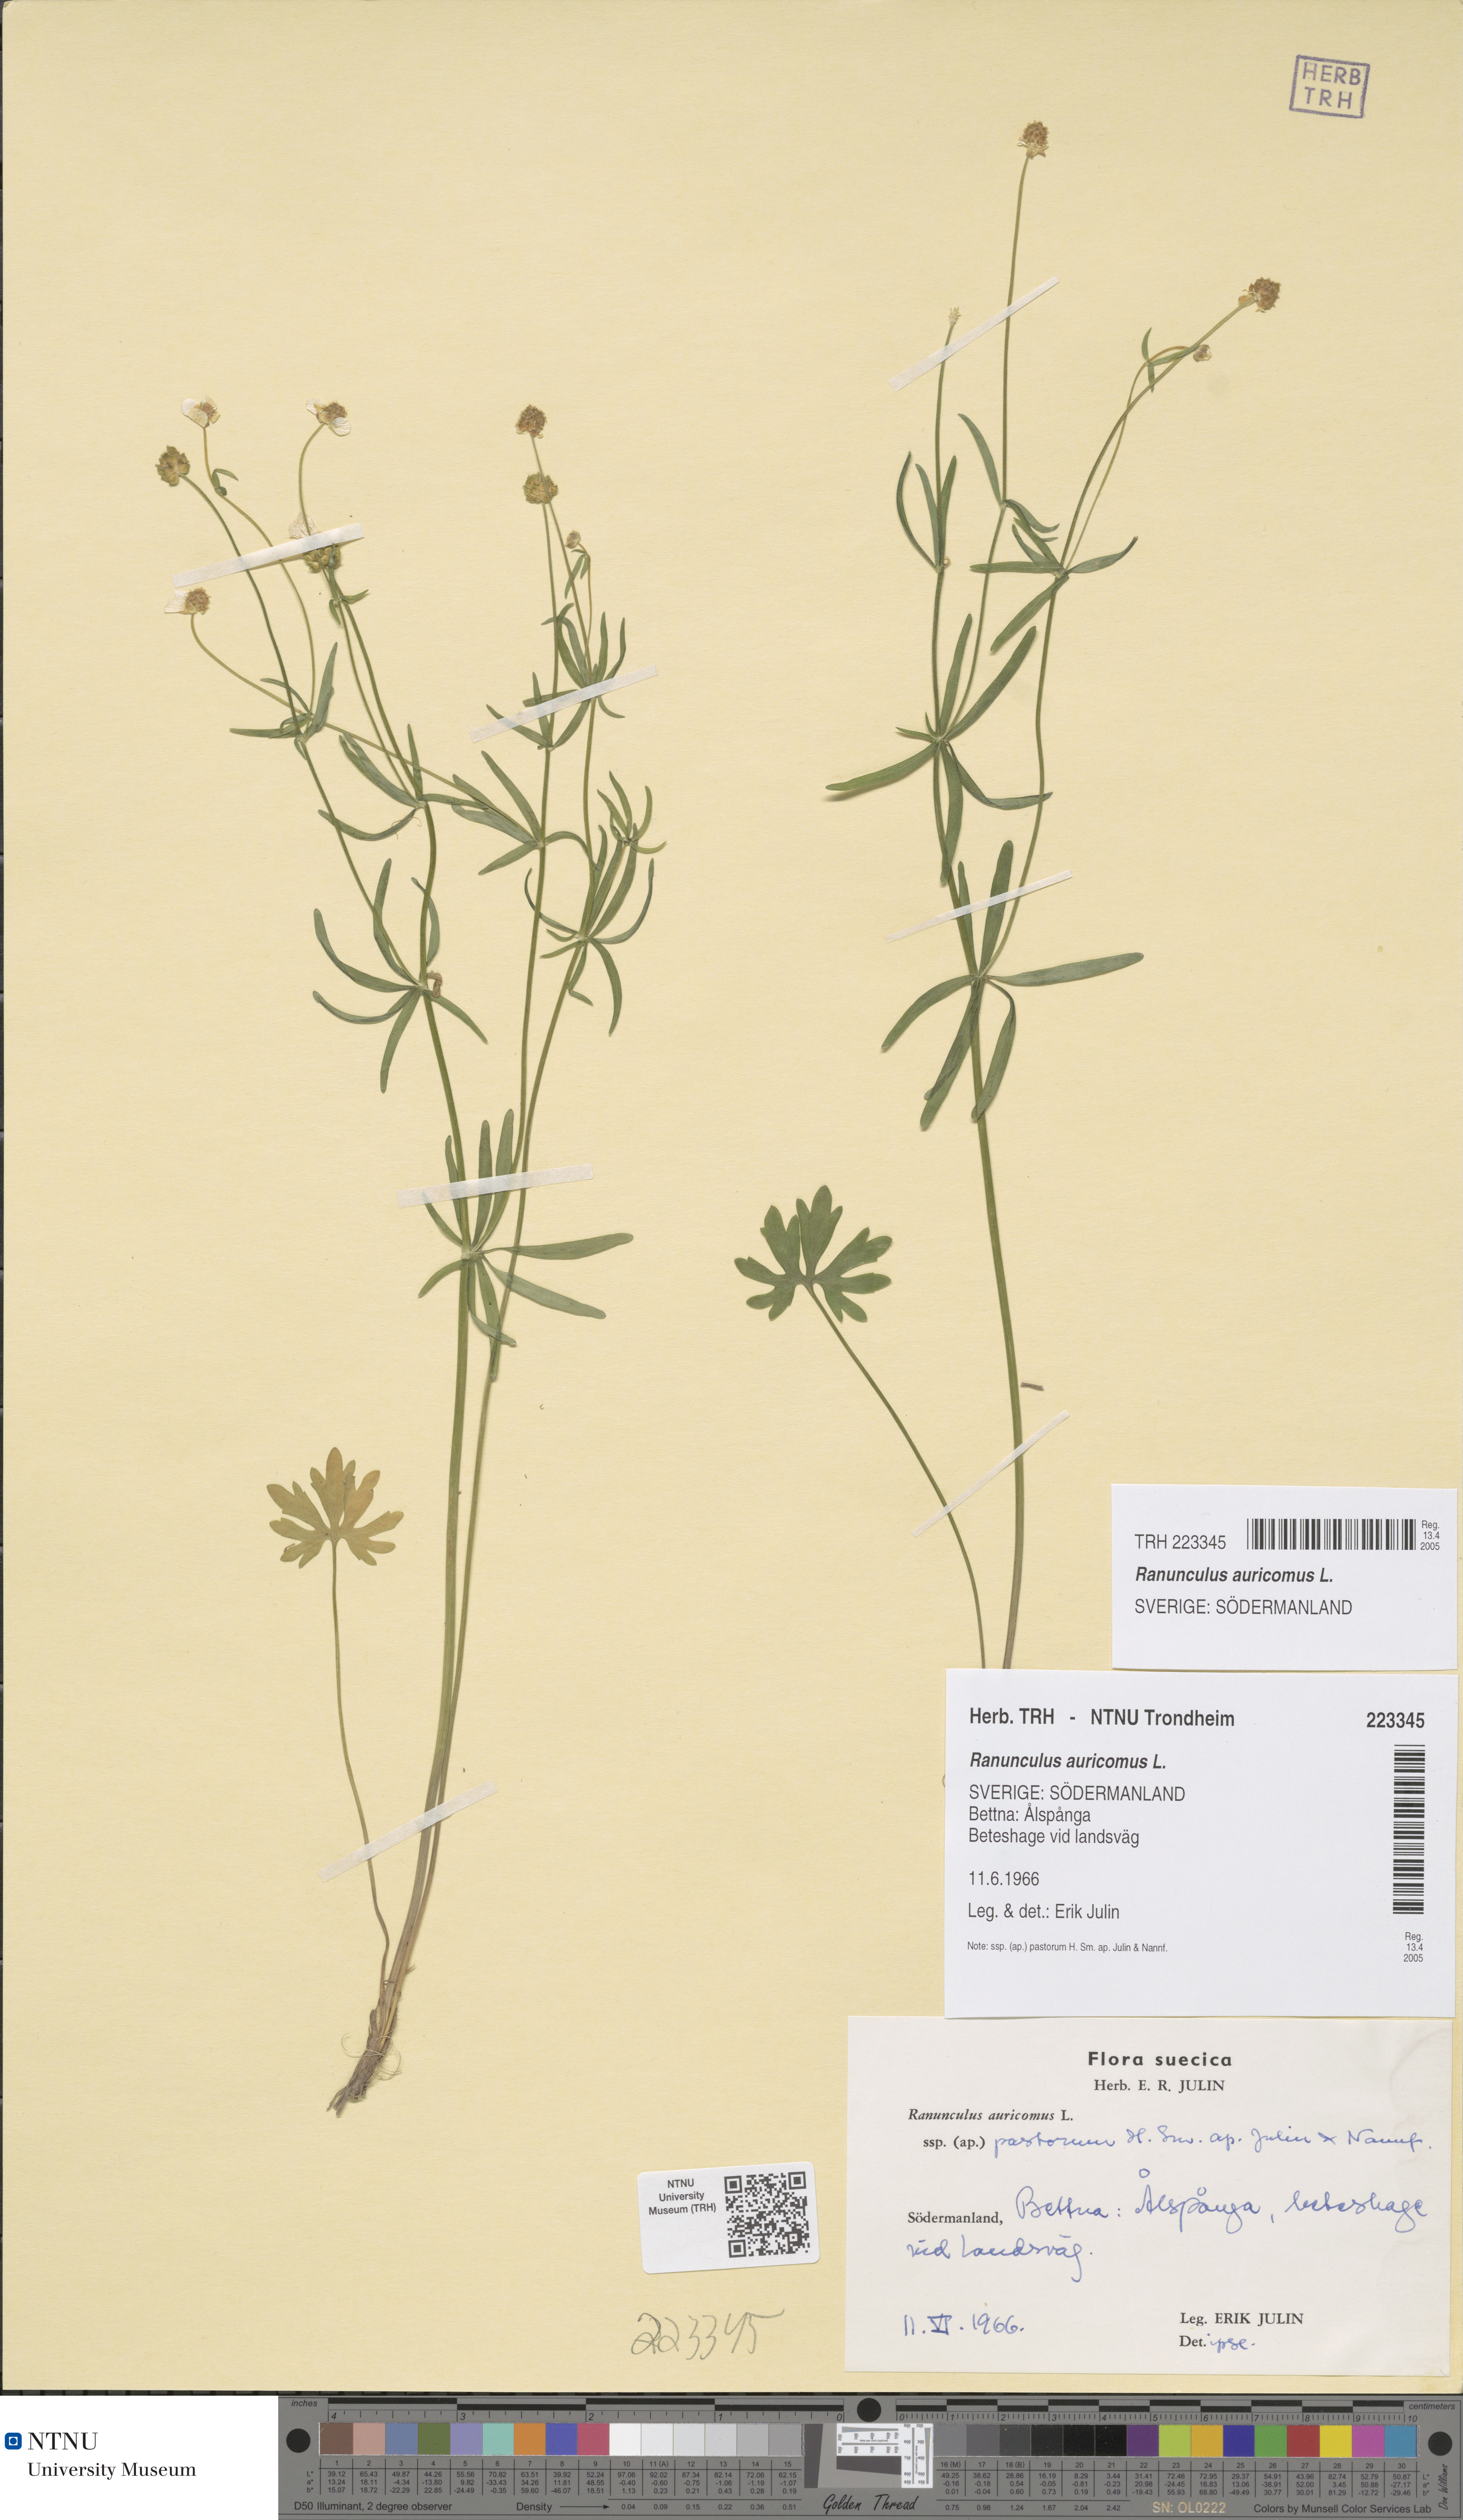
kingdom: Plantae
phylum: Tracheophyta
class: Magnoliopsida
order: Ranunculales
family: Ranunculaceae
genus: Ranunculus
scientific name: Ranunculus auricomus
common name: Goldilocks buttercup
